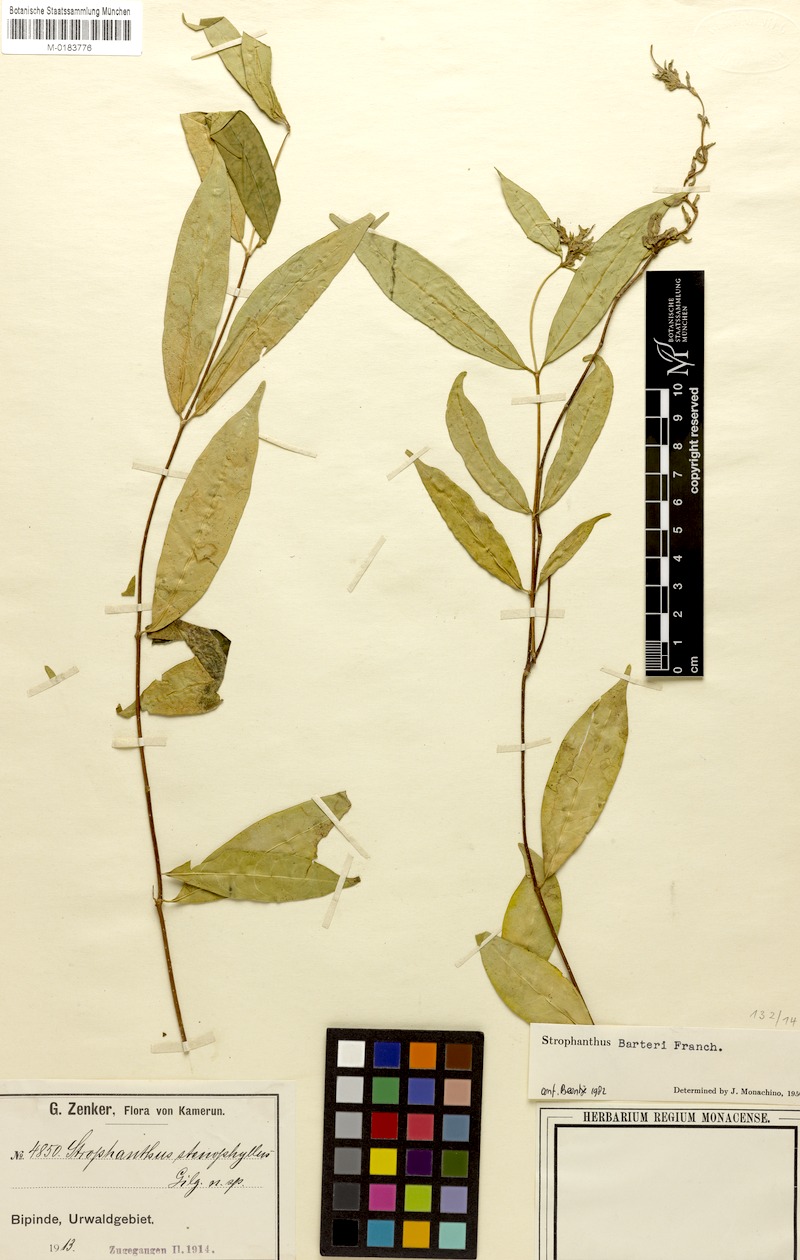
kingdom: Plantae
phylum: Tracheophyta
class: Magnoliopsida
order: Gentianales
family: Apocynaceae
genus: Strophanthus
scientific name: Strophanthus barteri
